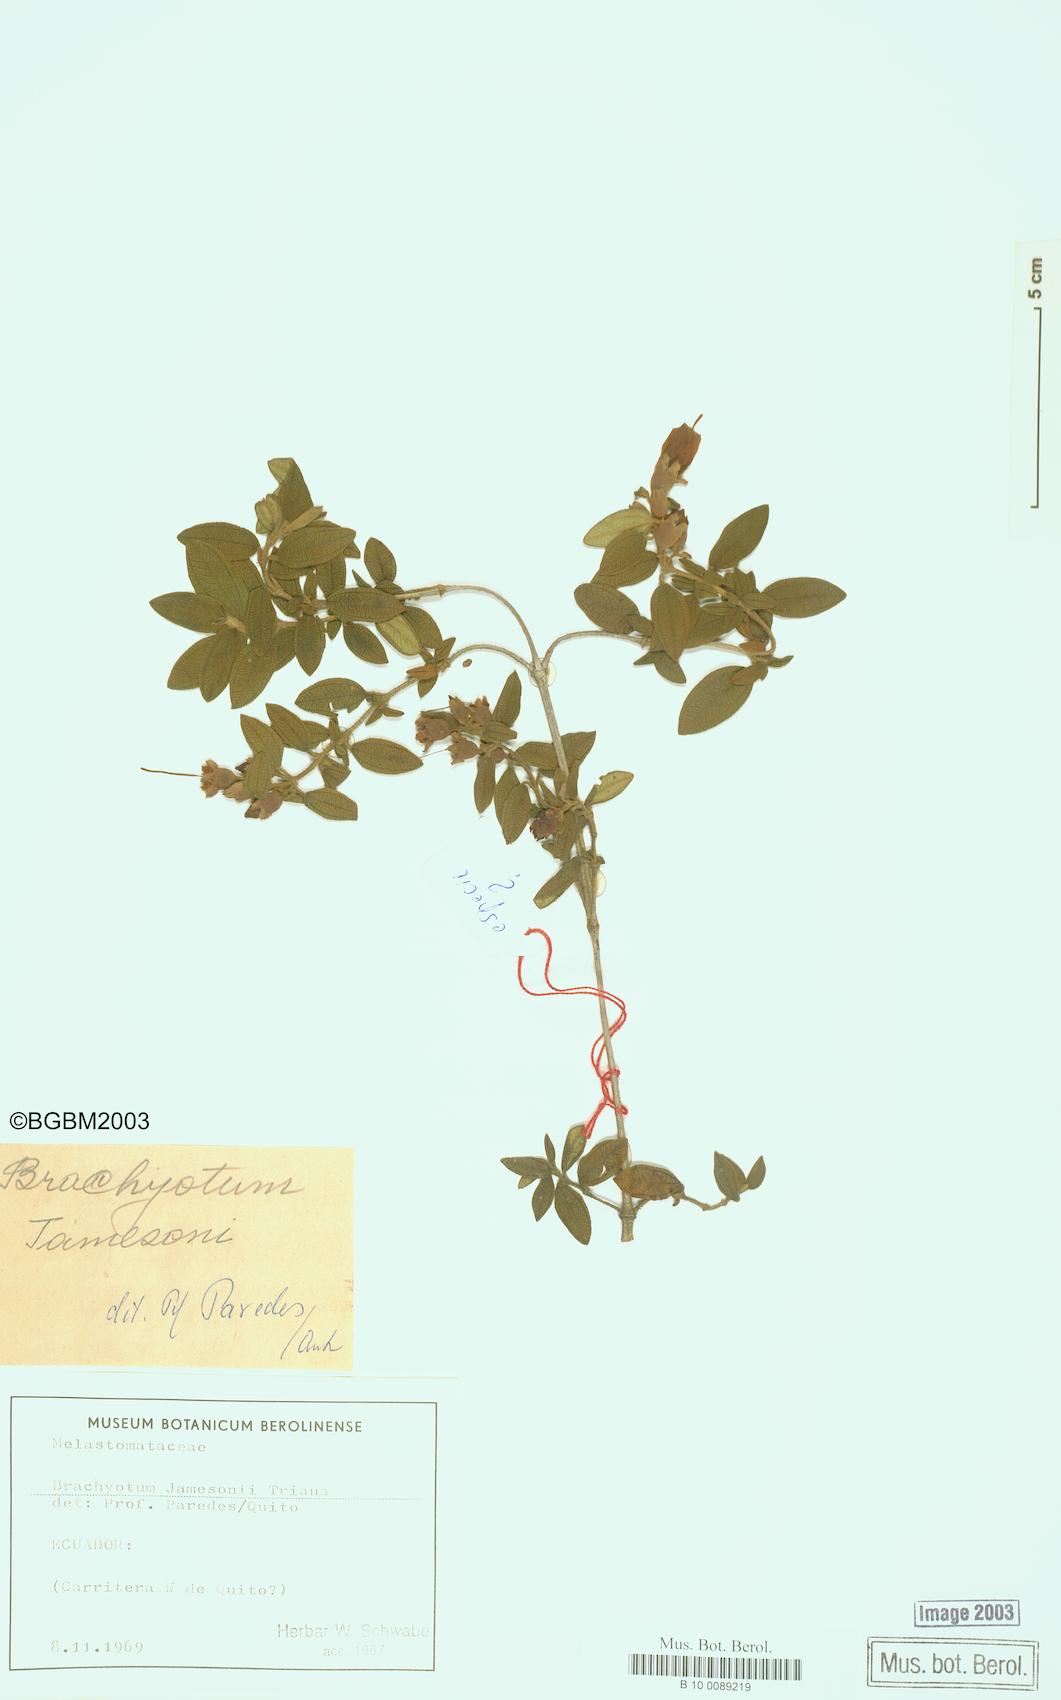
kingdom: Plantae
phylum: Tracheophyta
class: Magnoliopsida
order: Myrtales
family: Melastomataceae
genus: Brachyotum
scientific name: Brachyotum jamesonii
